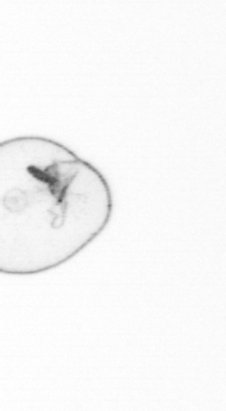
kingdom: Chromista
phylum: Myzozoa
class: Dinophyceae
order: Noctilucales
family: Noctilucaceae
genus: Noctiluca
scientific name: Noctiluca scintillans
